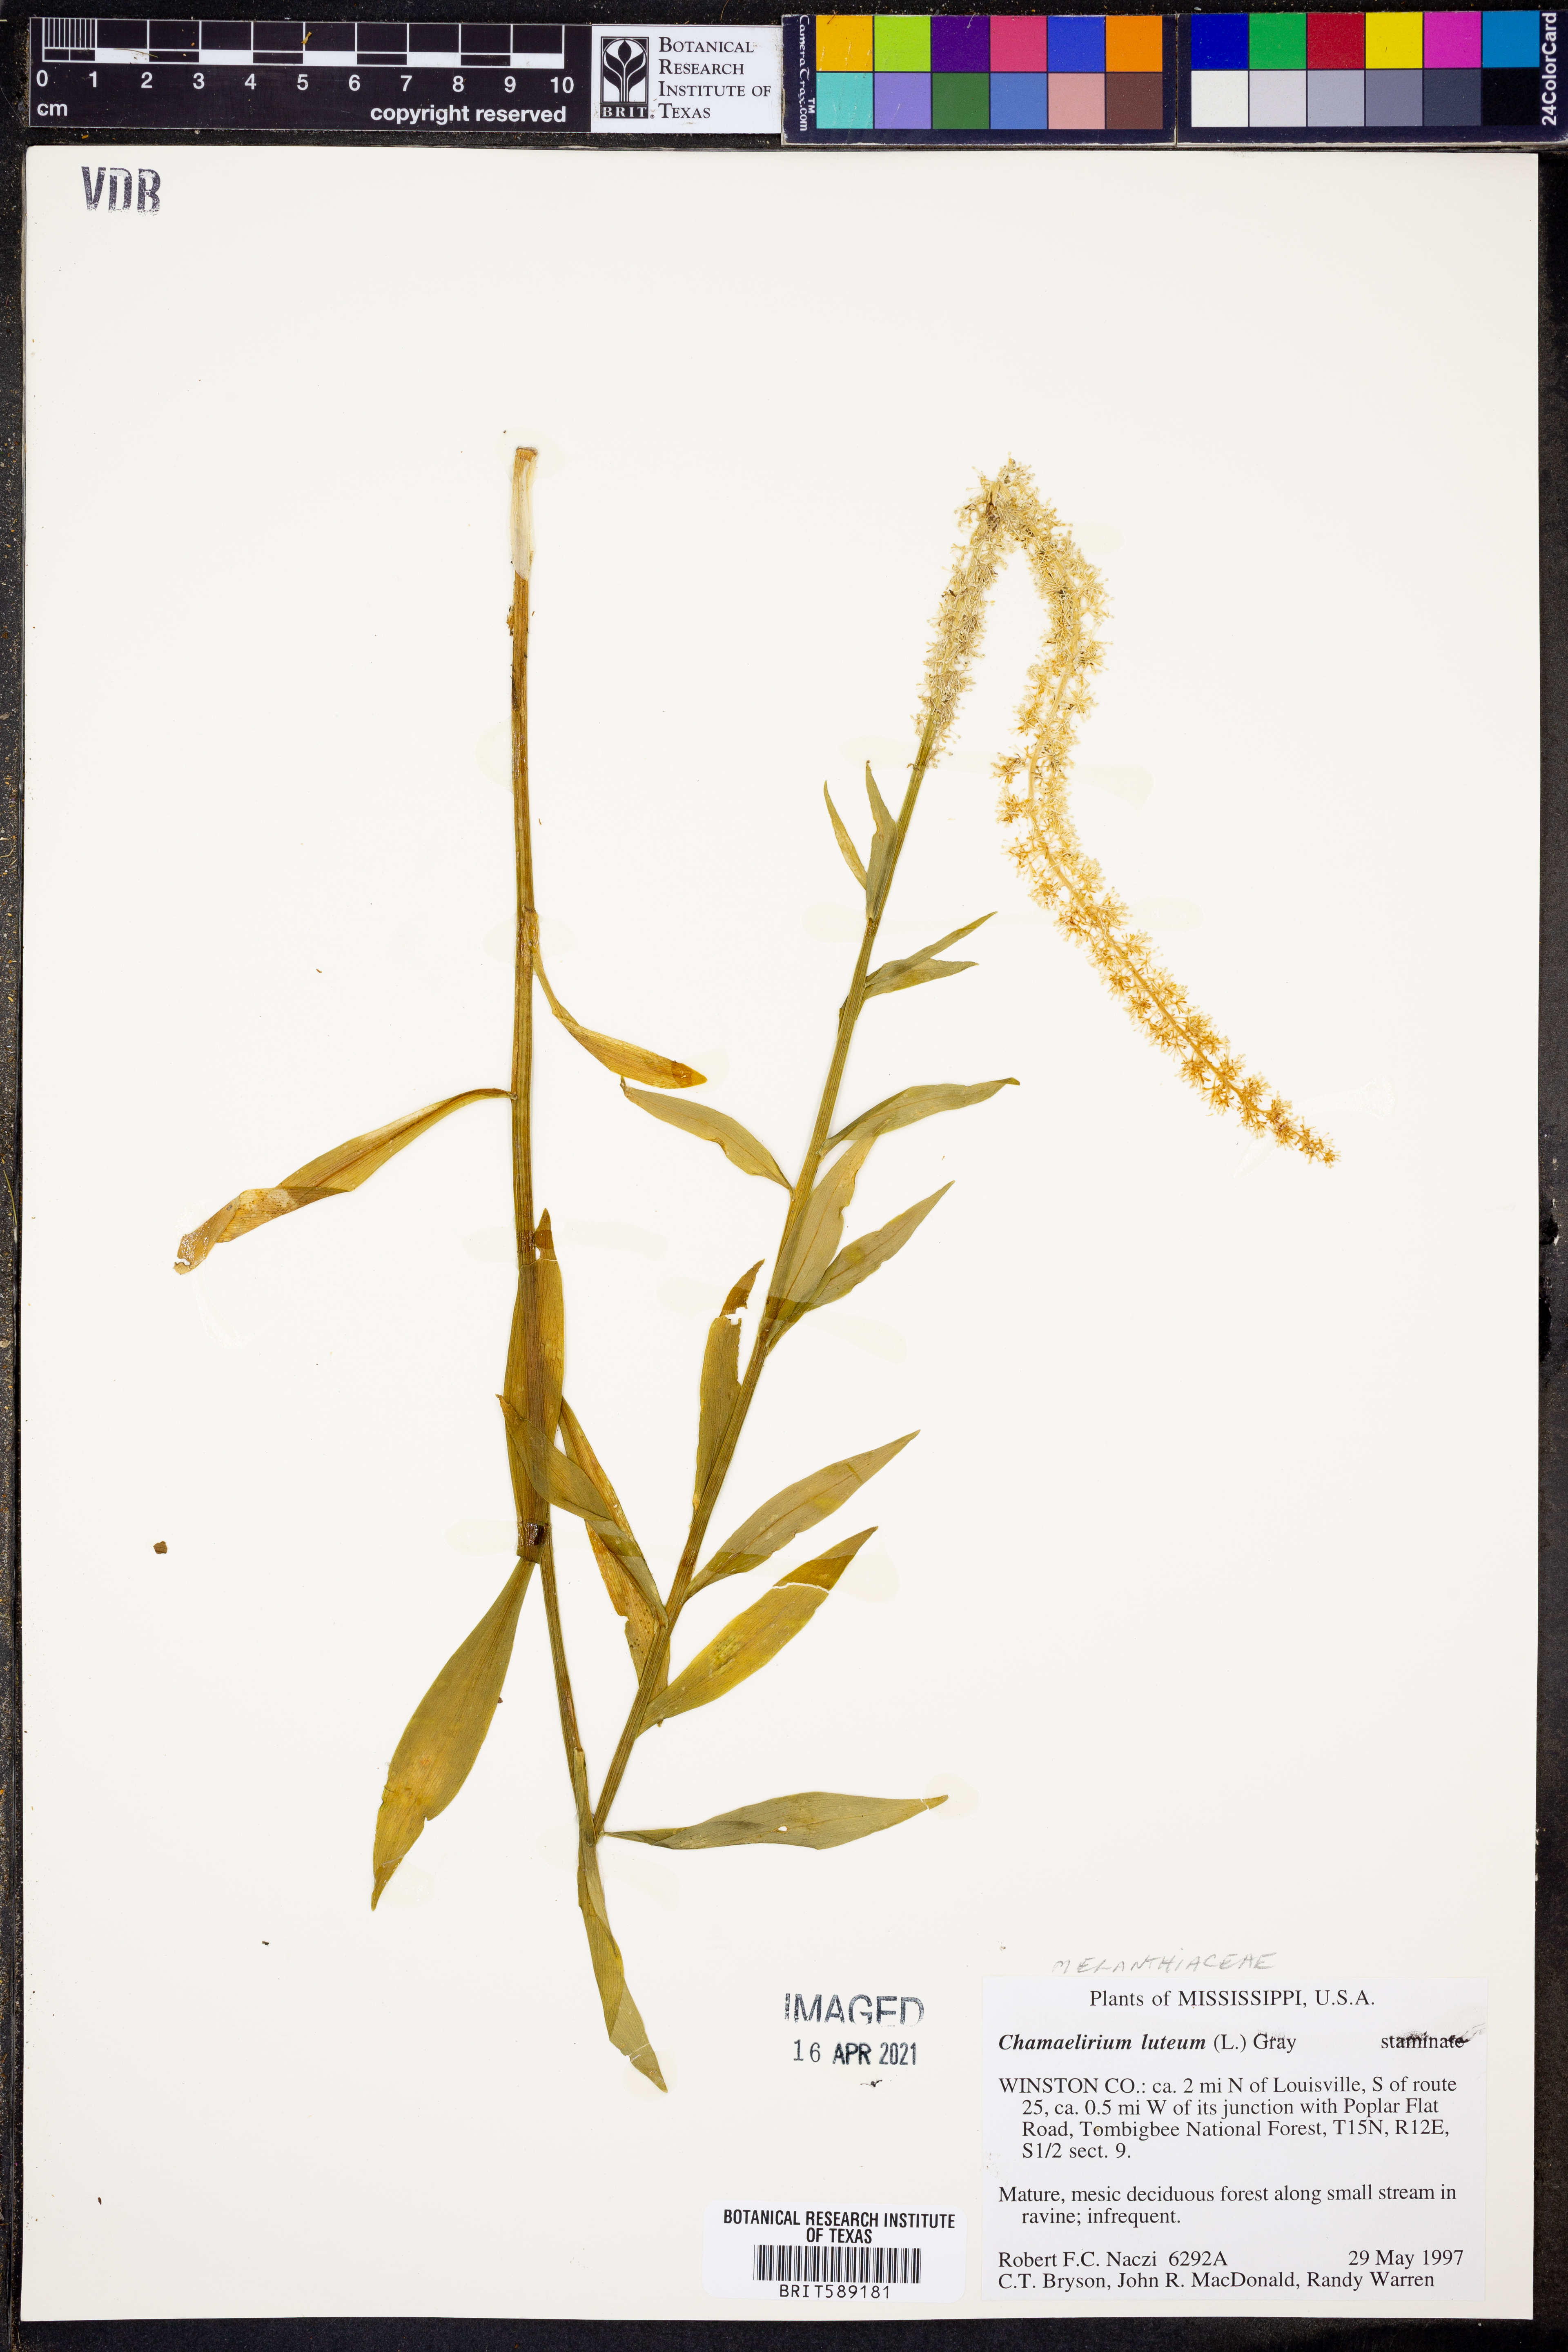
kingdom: Plantae
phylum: Tracheophyta
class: Liliopsida
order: Liliales
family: Melanthiaceae
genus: Chamaelirium
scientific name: Chamaelirium luteum
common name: Fairy-wand
